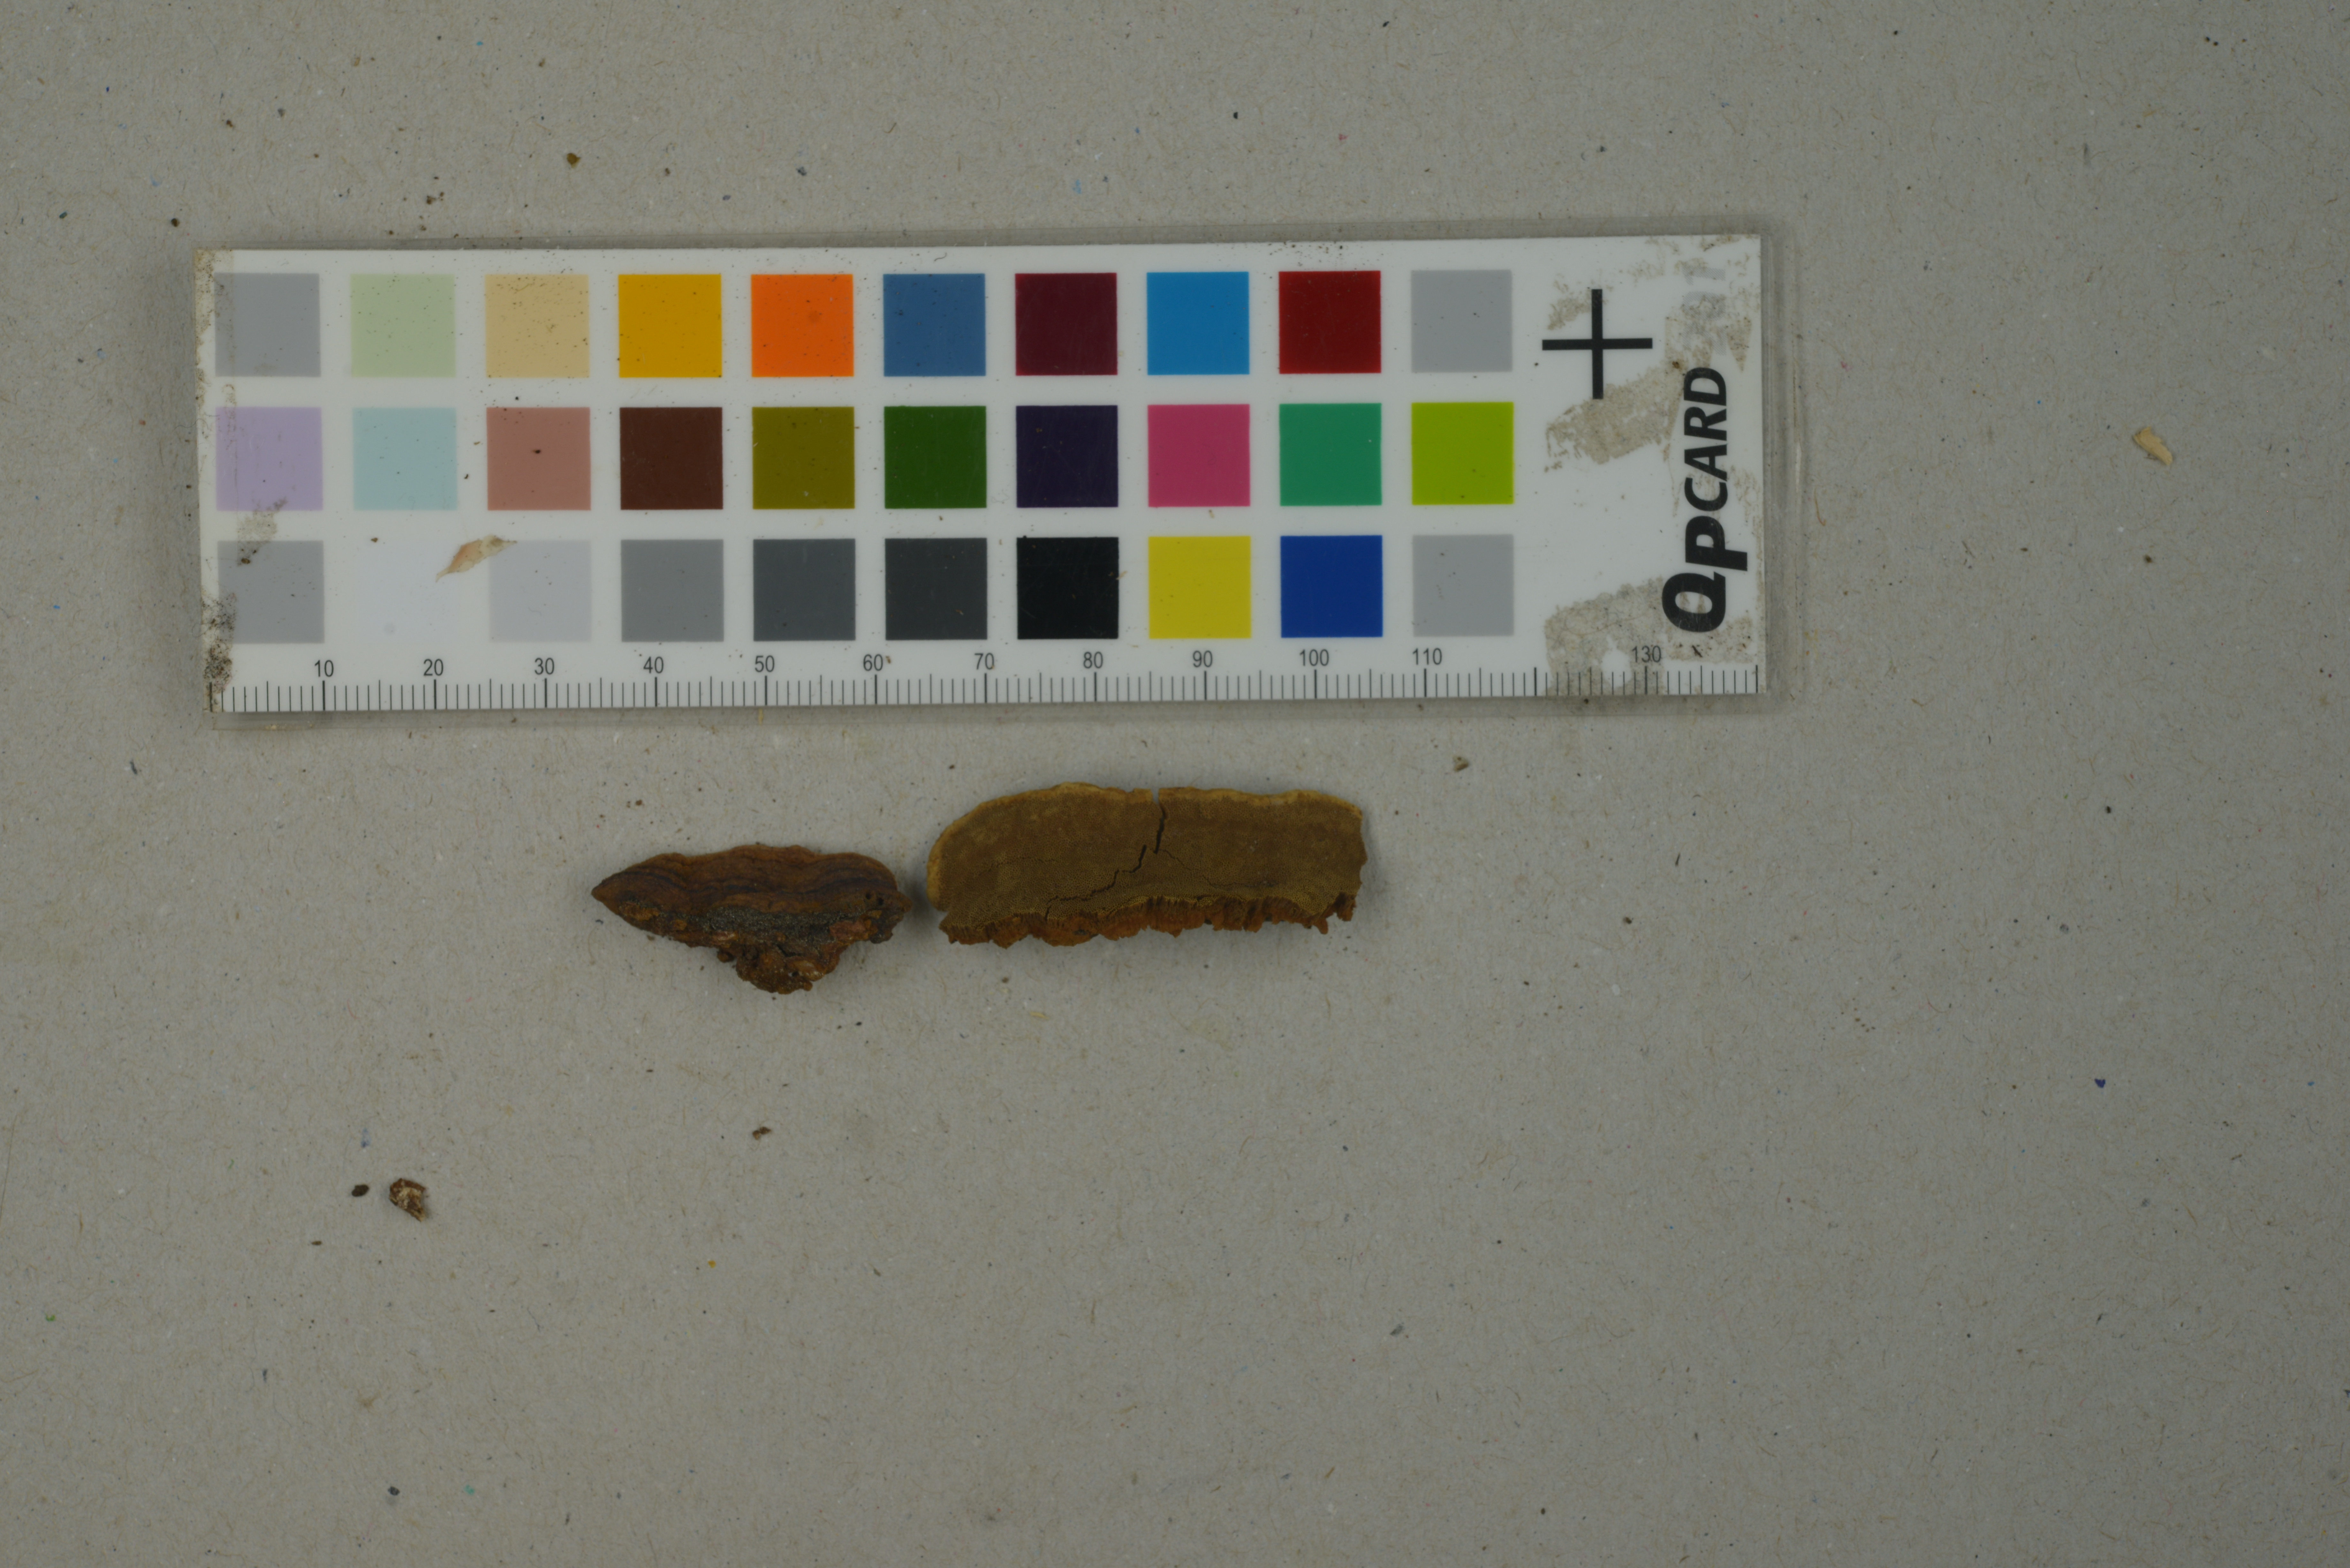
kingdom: Fungi
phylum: Basidiomycota
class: Agaricomycetes
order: Hymenochaetales
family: Hymenochaetaceae
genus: Phellinopsis
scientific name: Phellinopsis conchata
